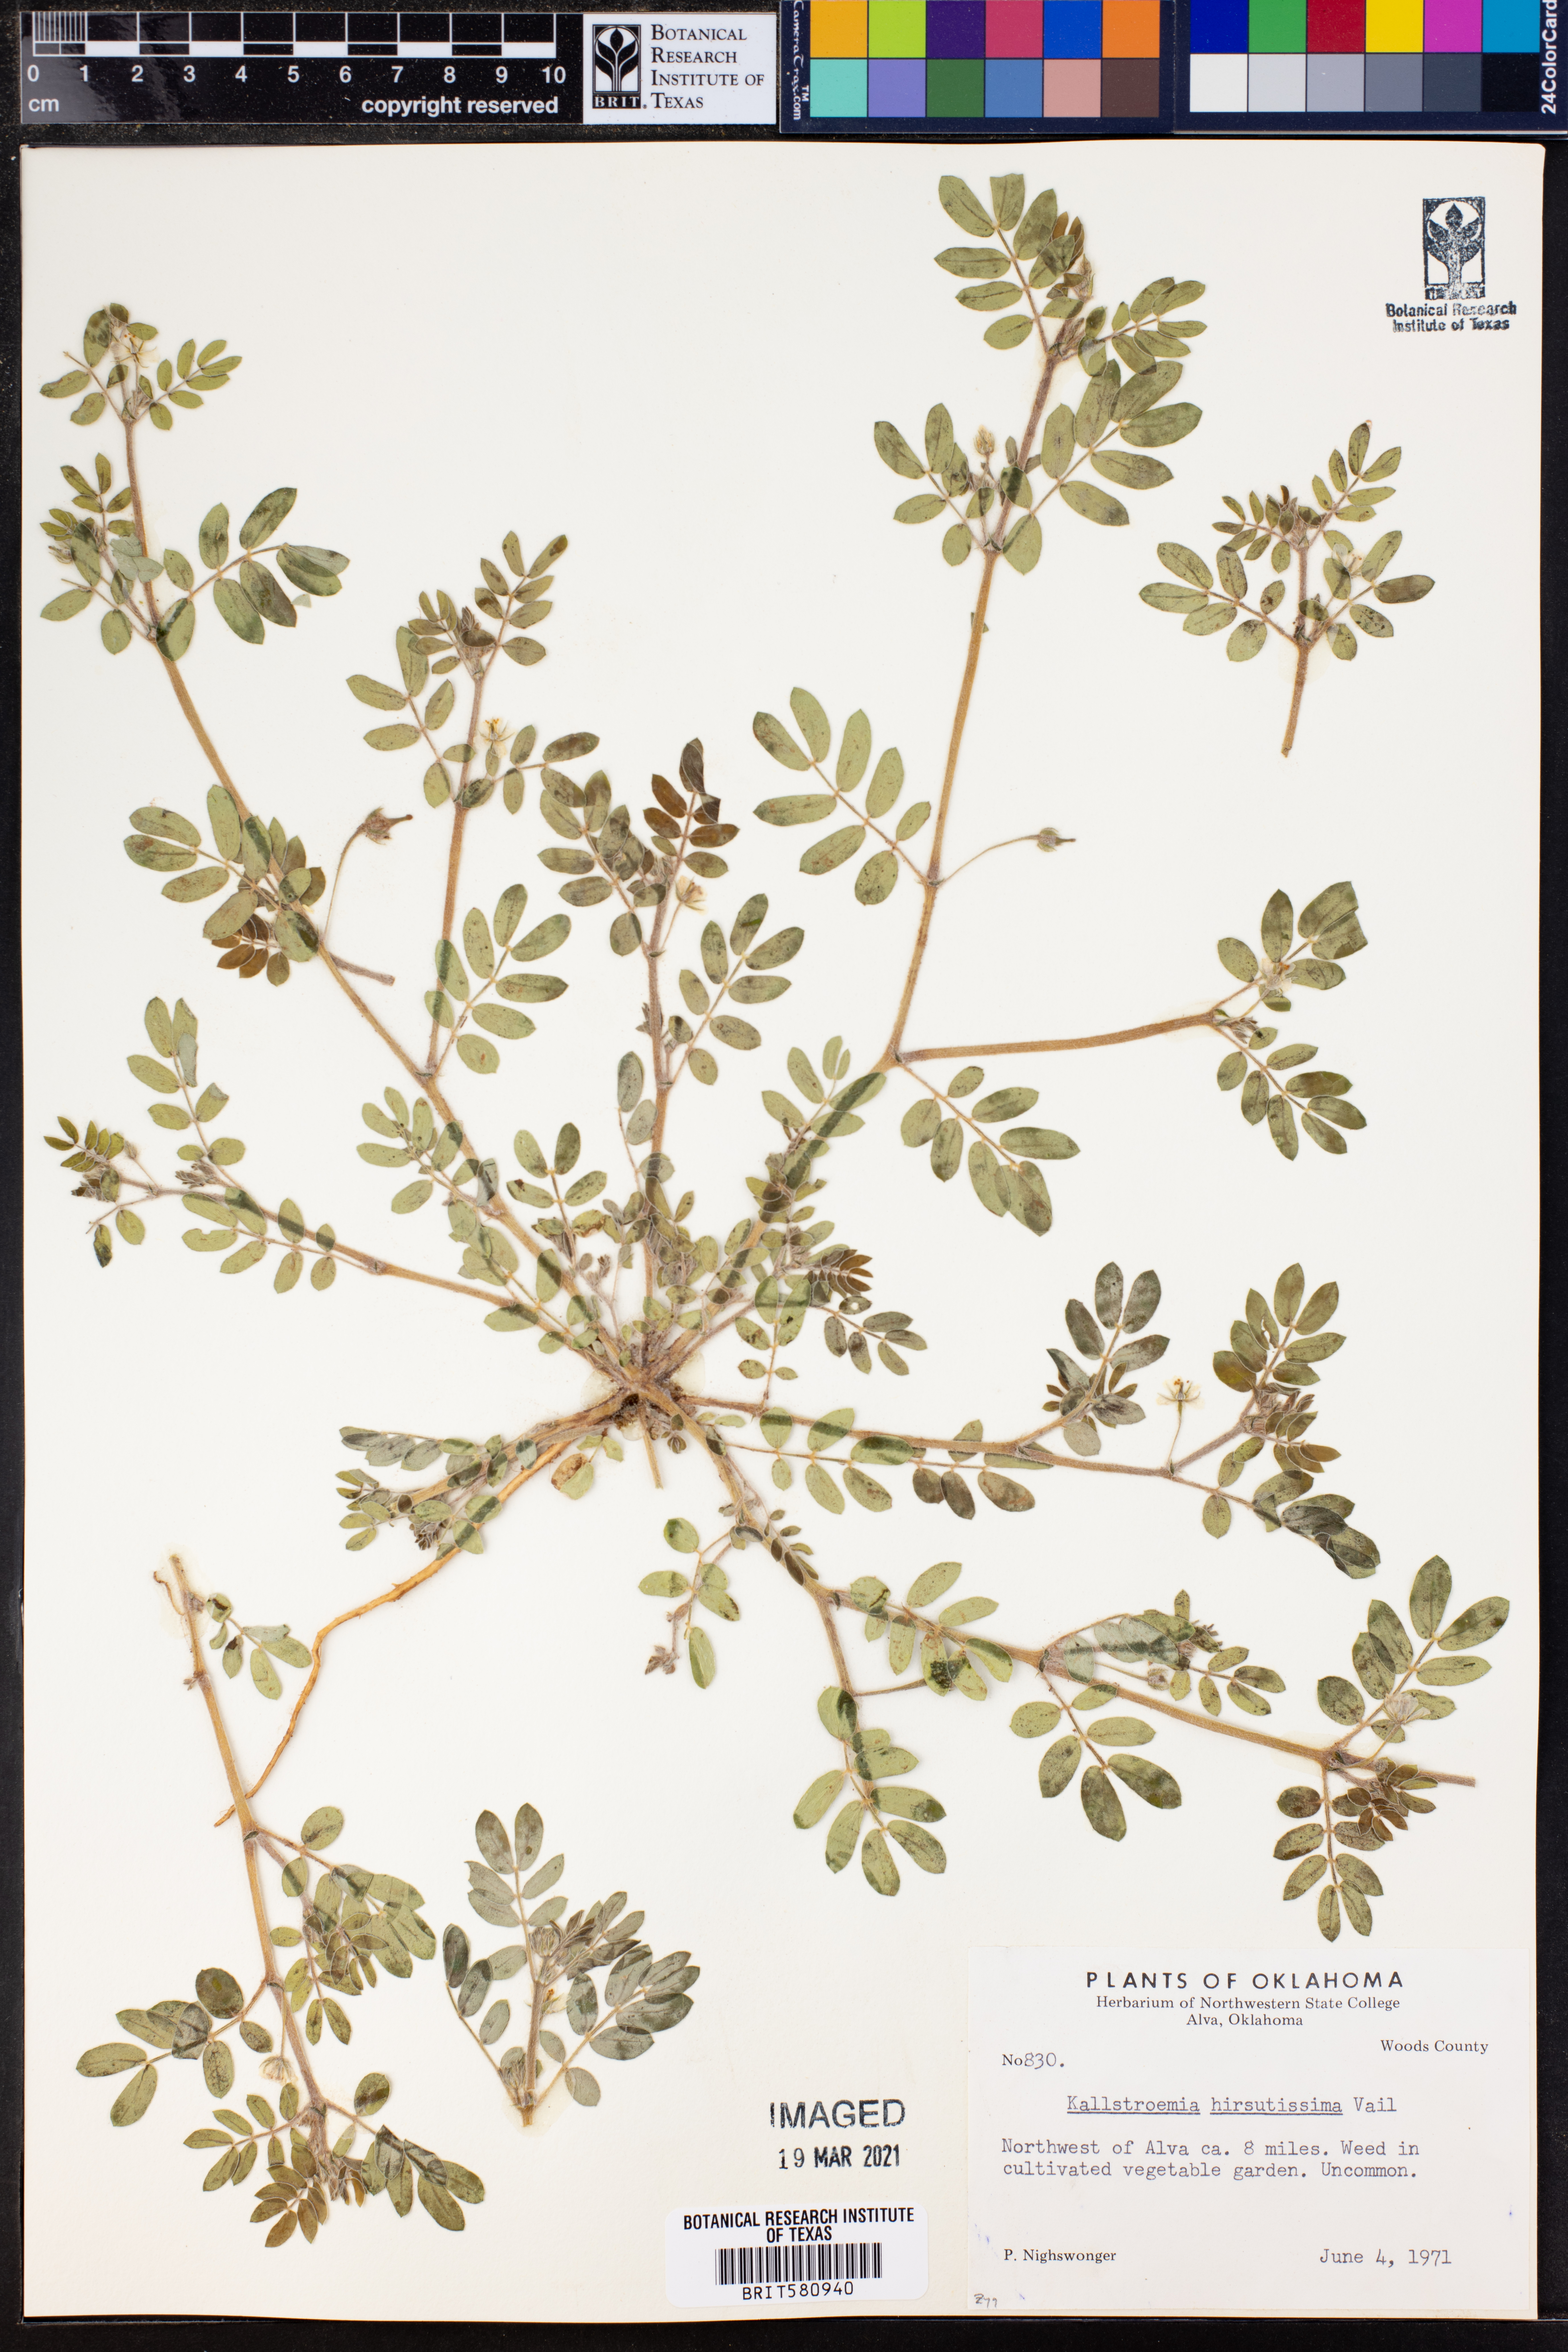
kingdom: Plantae
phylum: Tracheophyta
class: Magnoliopsida
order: Zygophyllales
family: Zygophyllaceae
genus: Kallstroemia
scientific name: Kallstroemia hirsutissima
